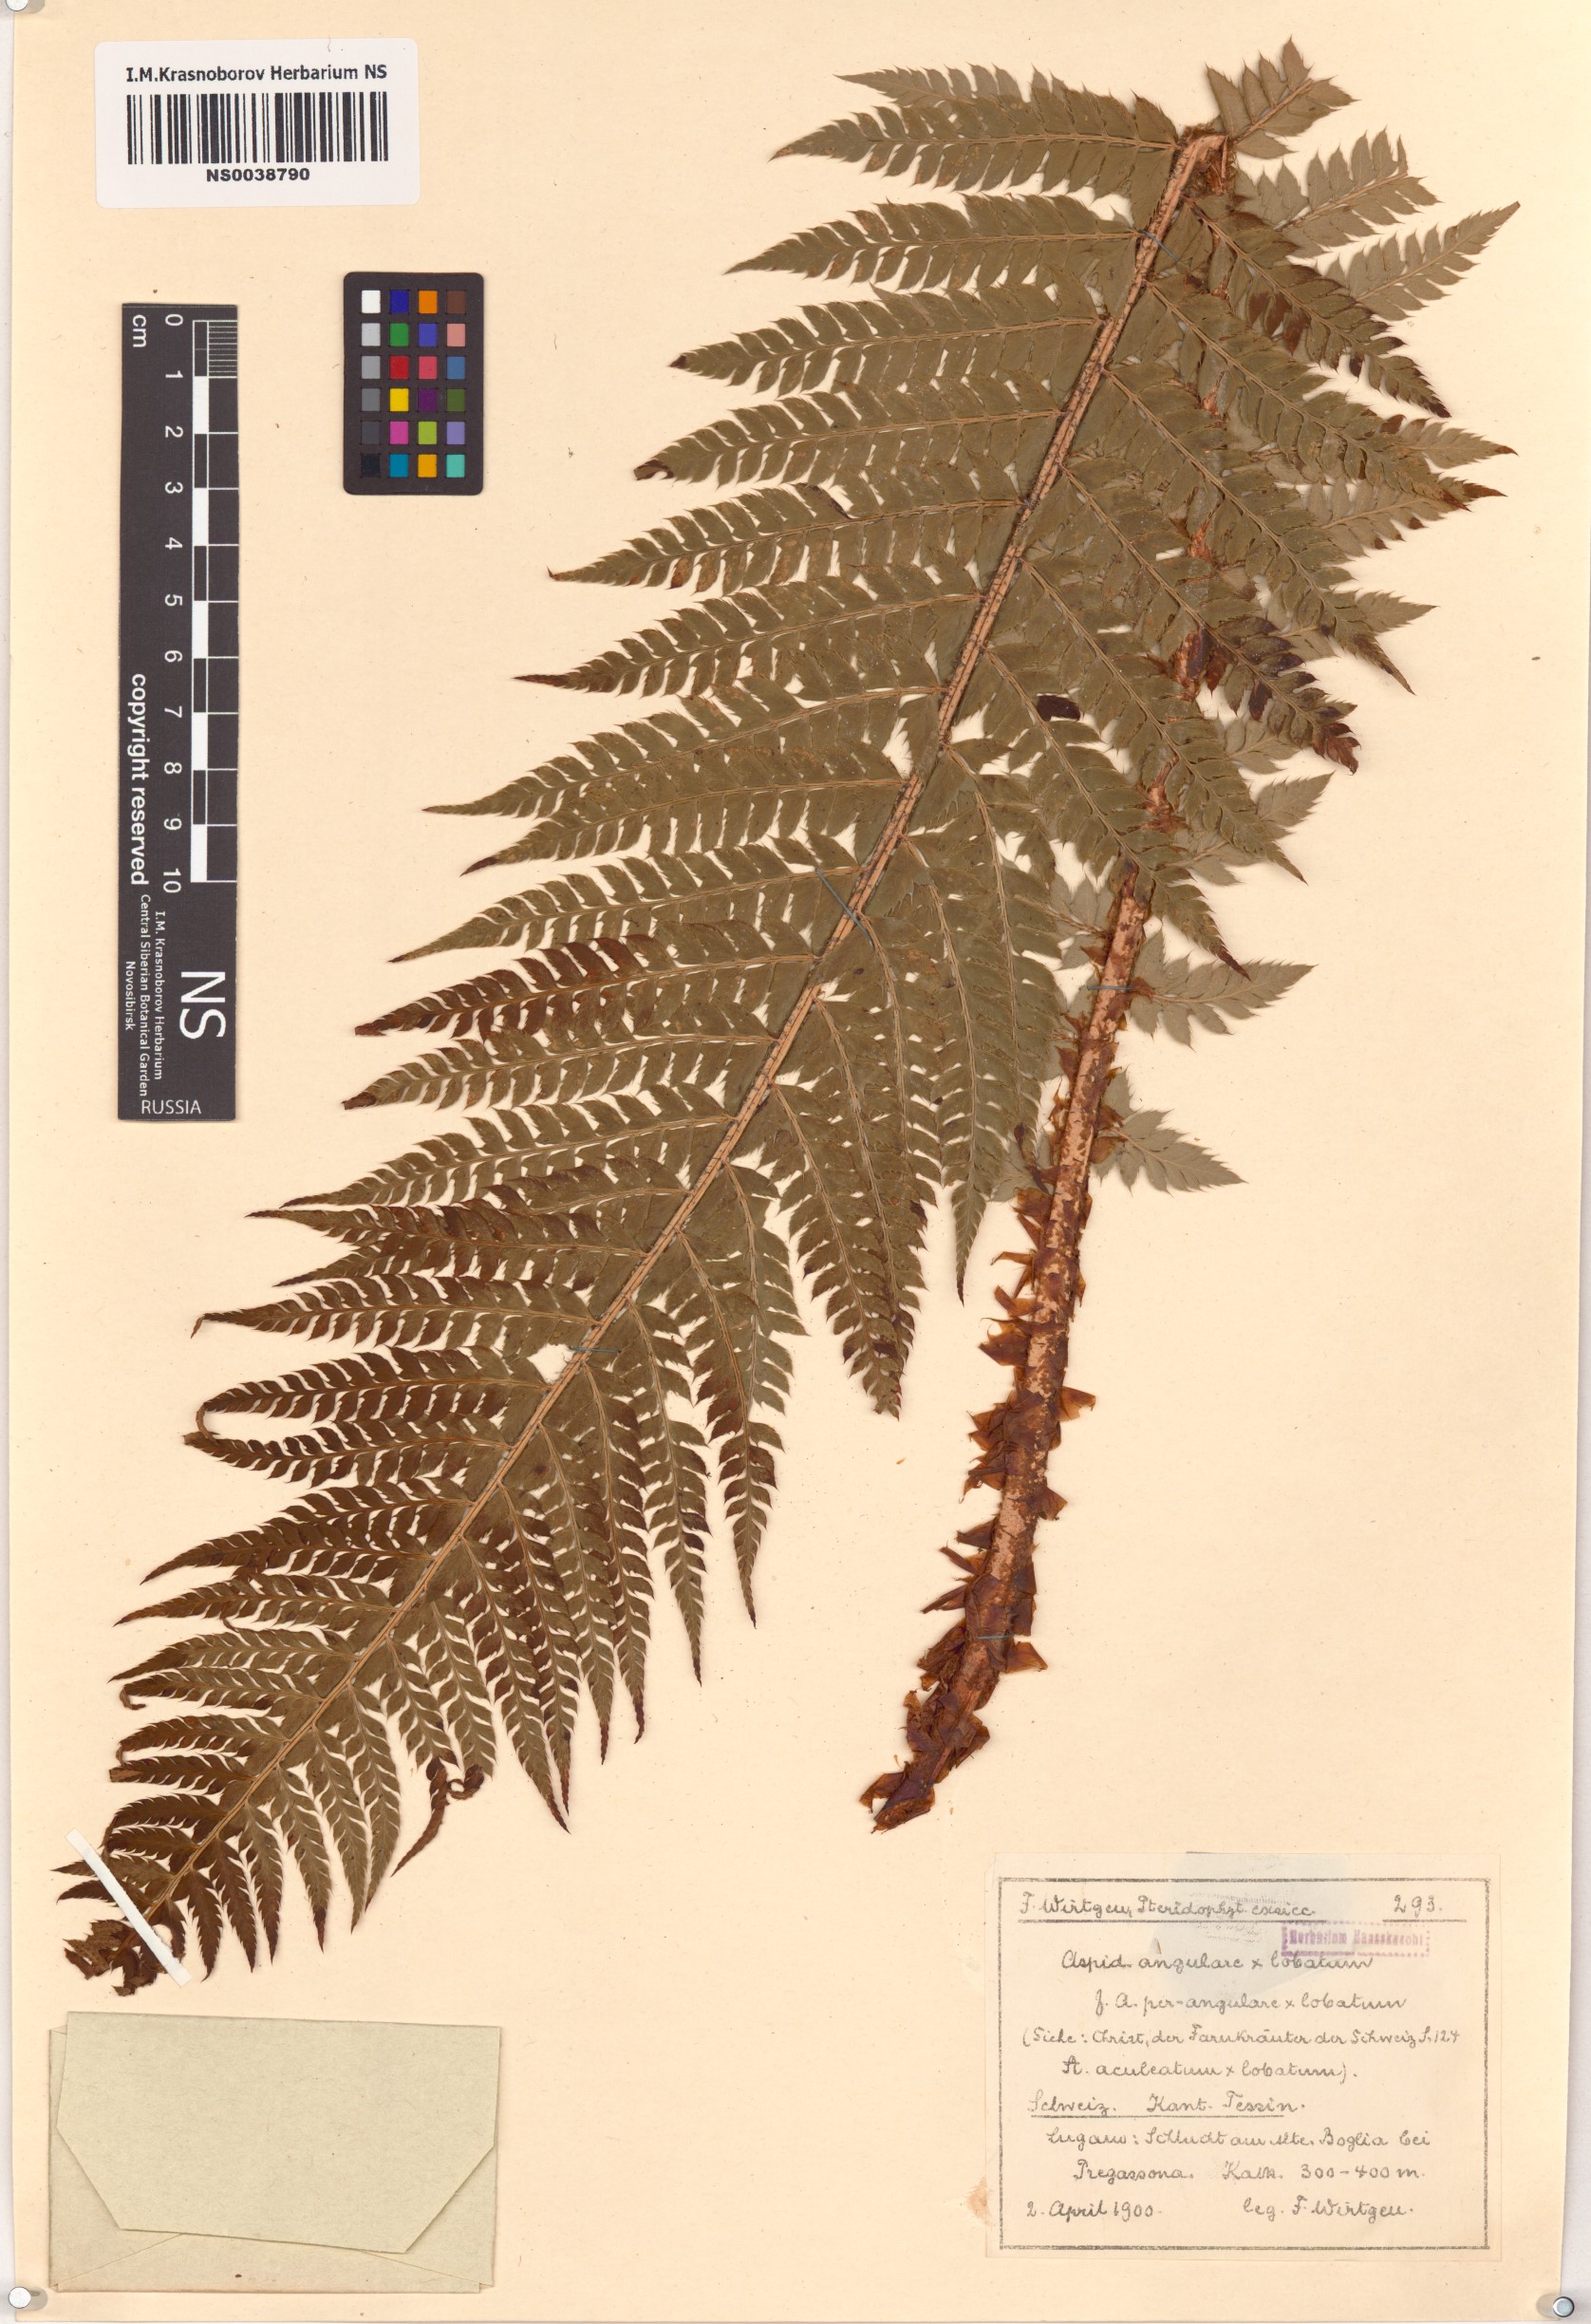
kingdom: Plantae
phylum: Tracheophyta
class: Polypodiopsida
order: Polypodiales
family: Dryopteridaceae
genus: Polystichum
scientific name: Polystichum setiferum
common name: Soft shield-fern
